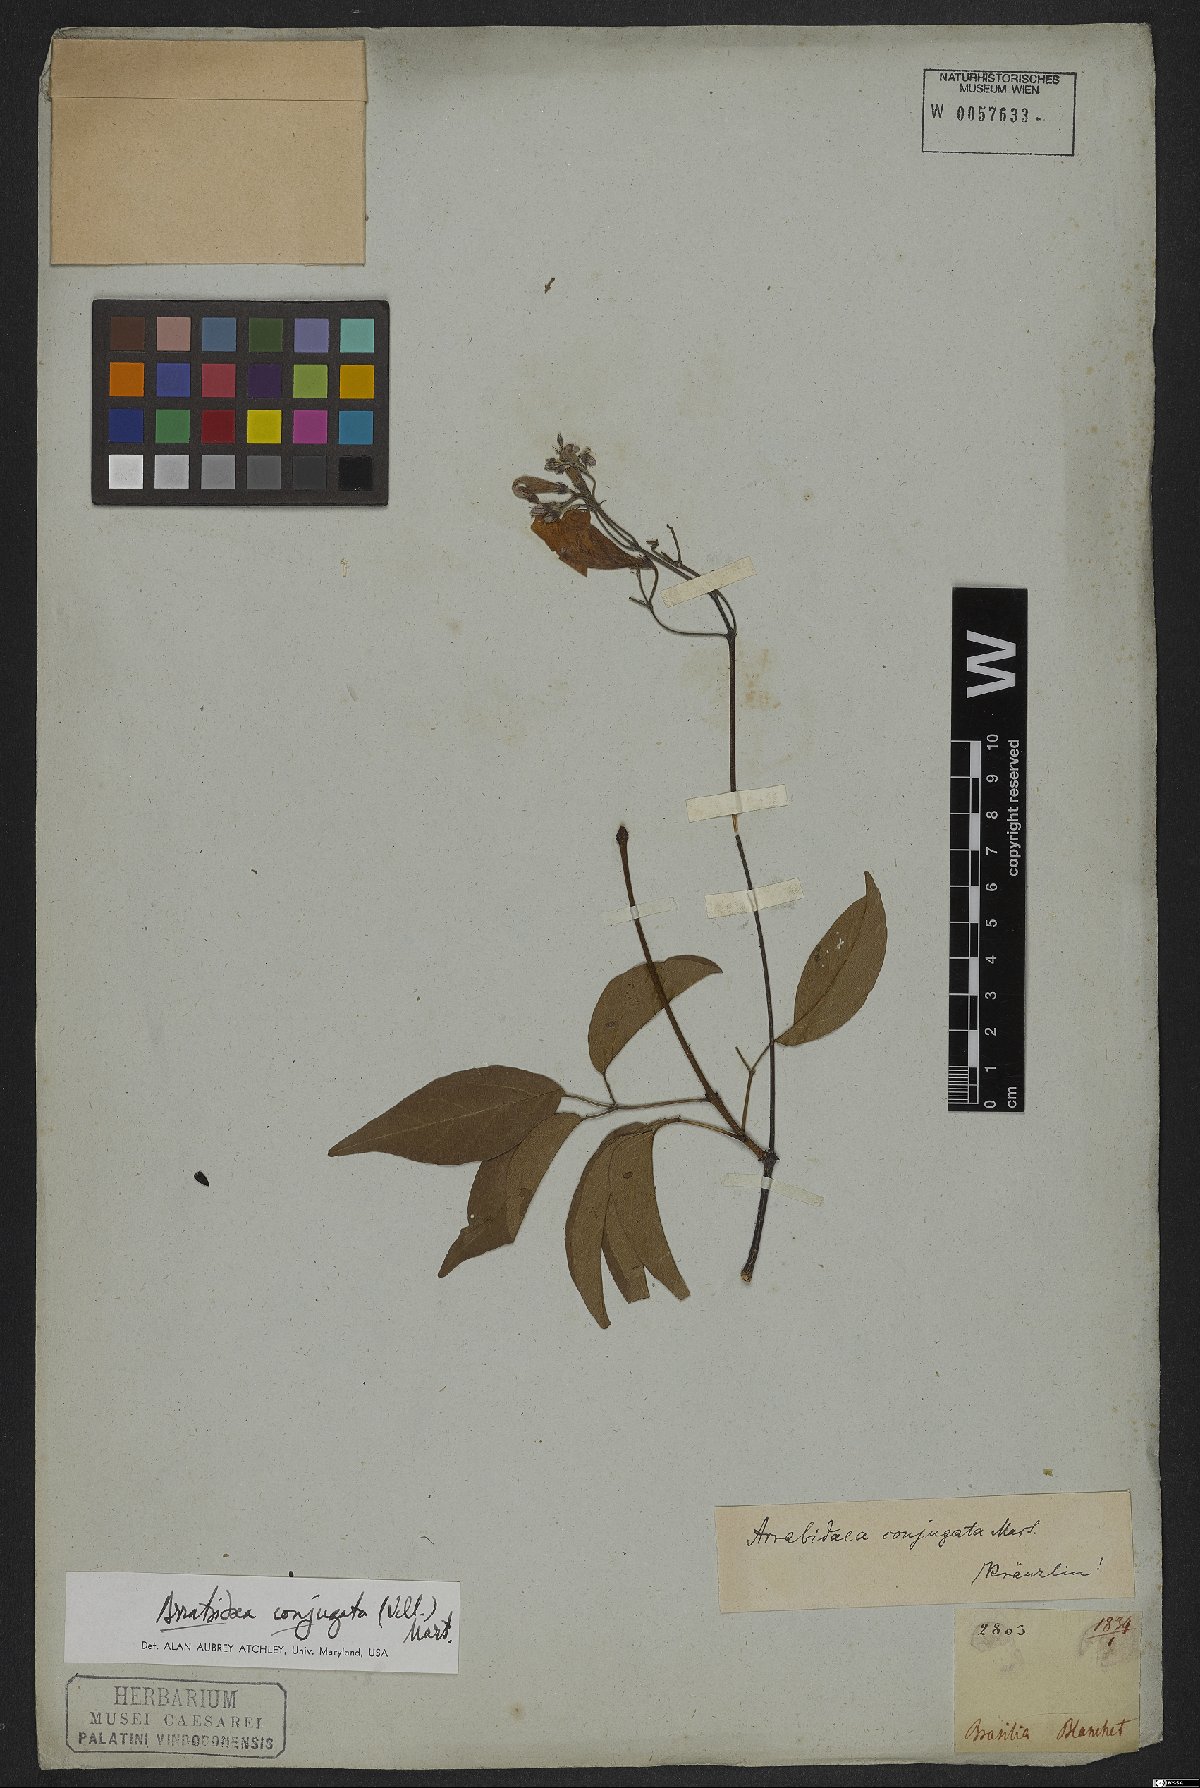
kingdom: Plantae
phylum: Tracheophyta
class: Magnoliopsida
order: Lamiales
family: Bignoniaceae
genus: Fridericia
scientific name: Fridericia conjugata
